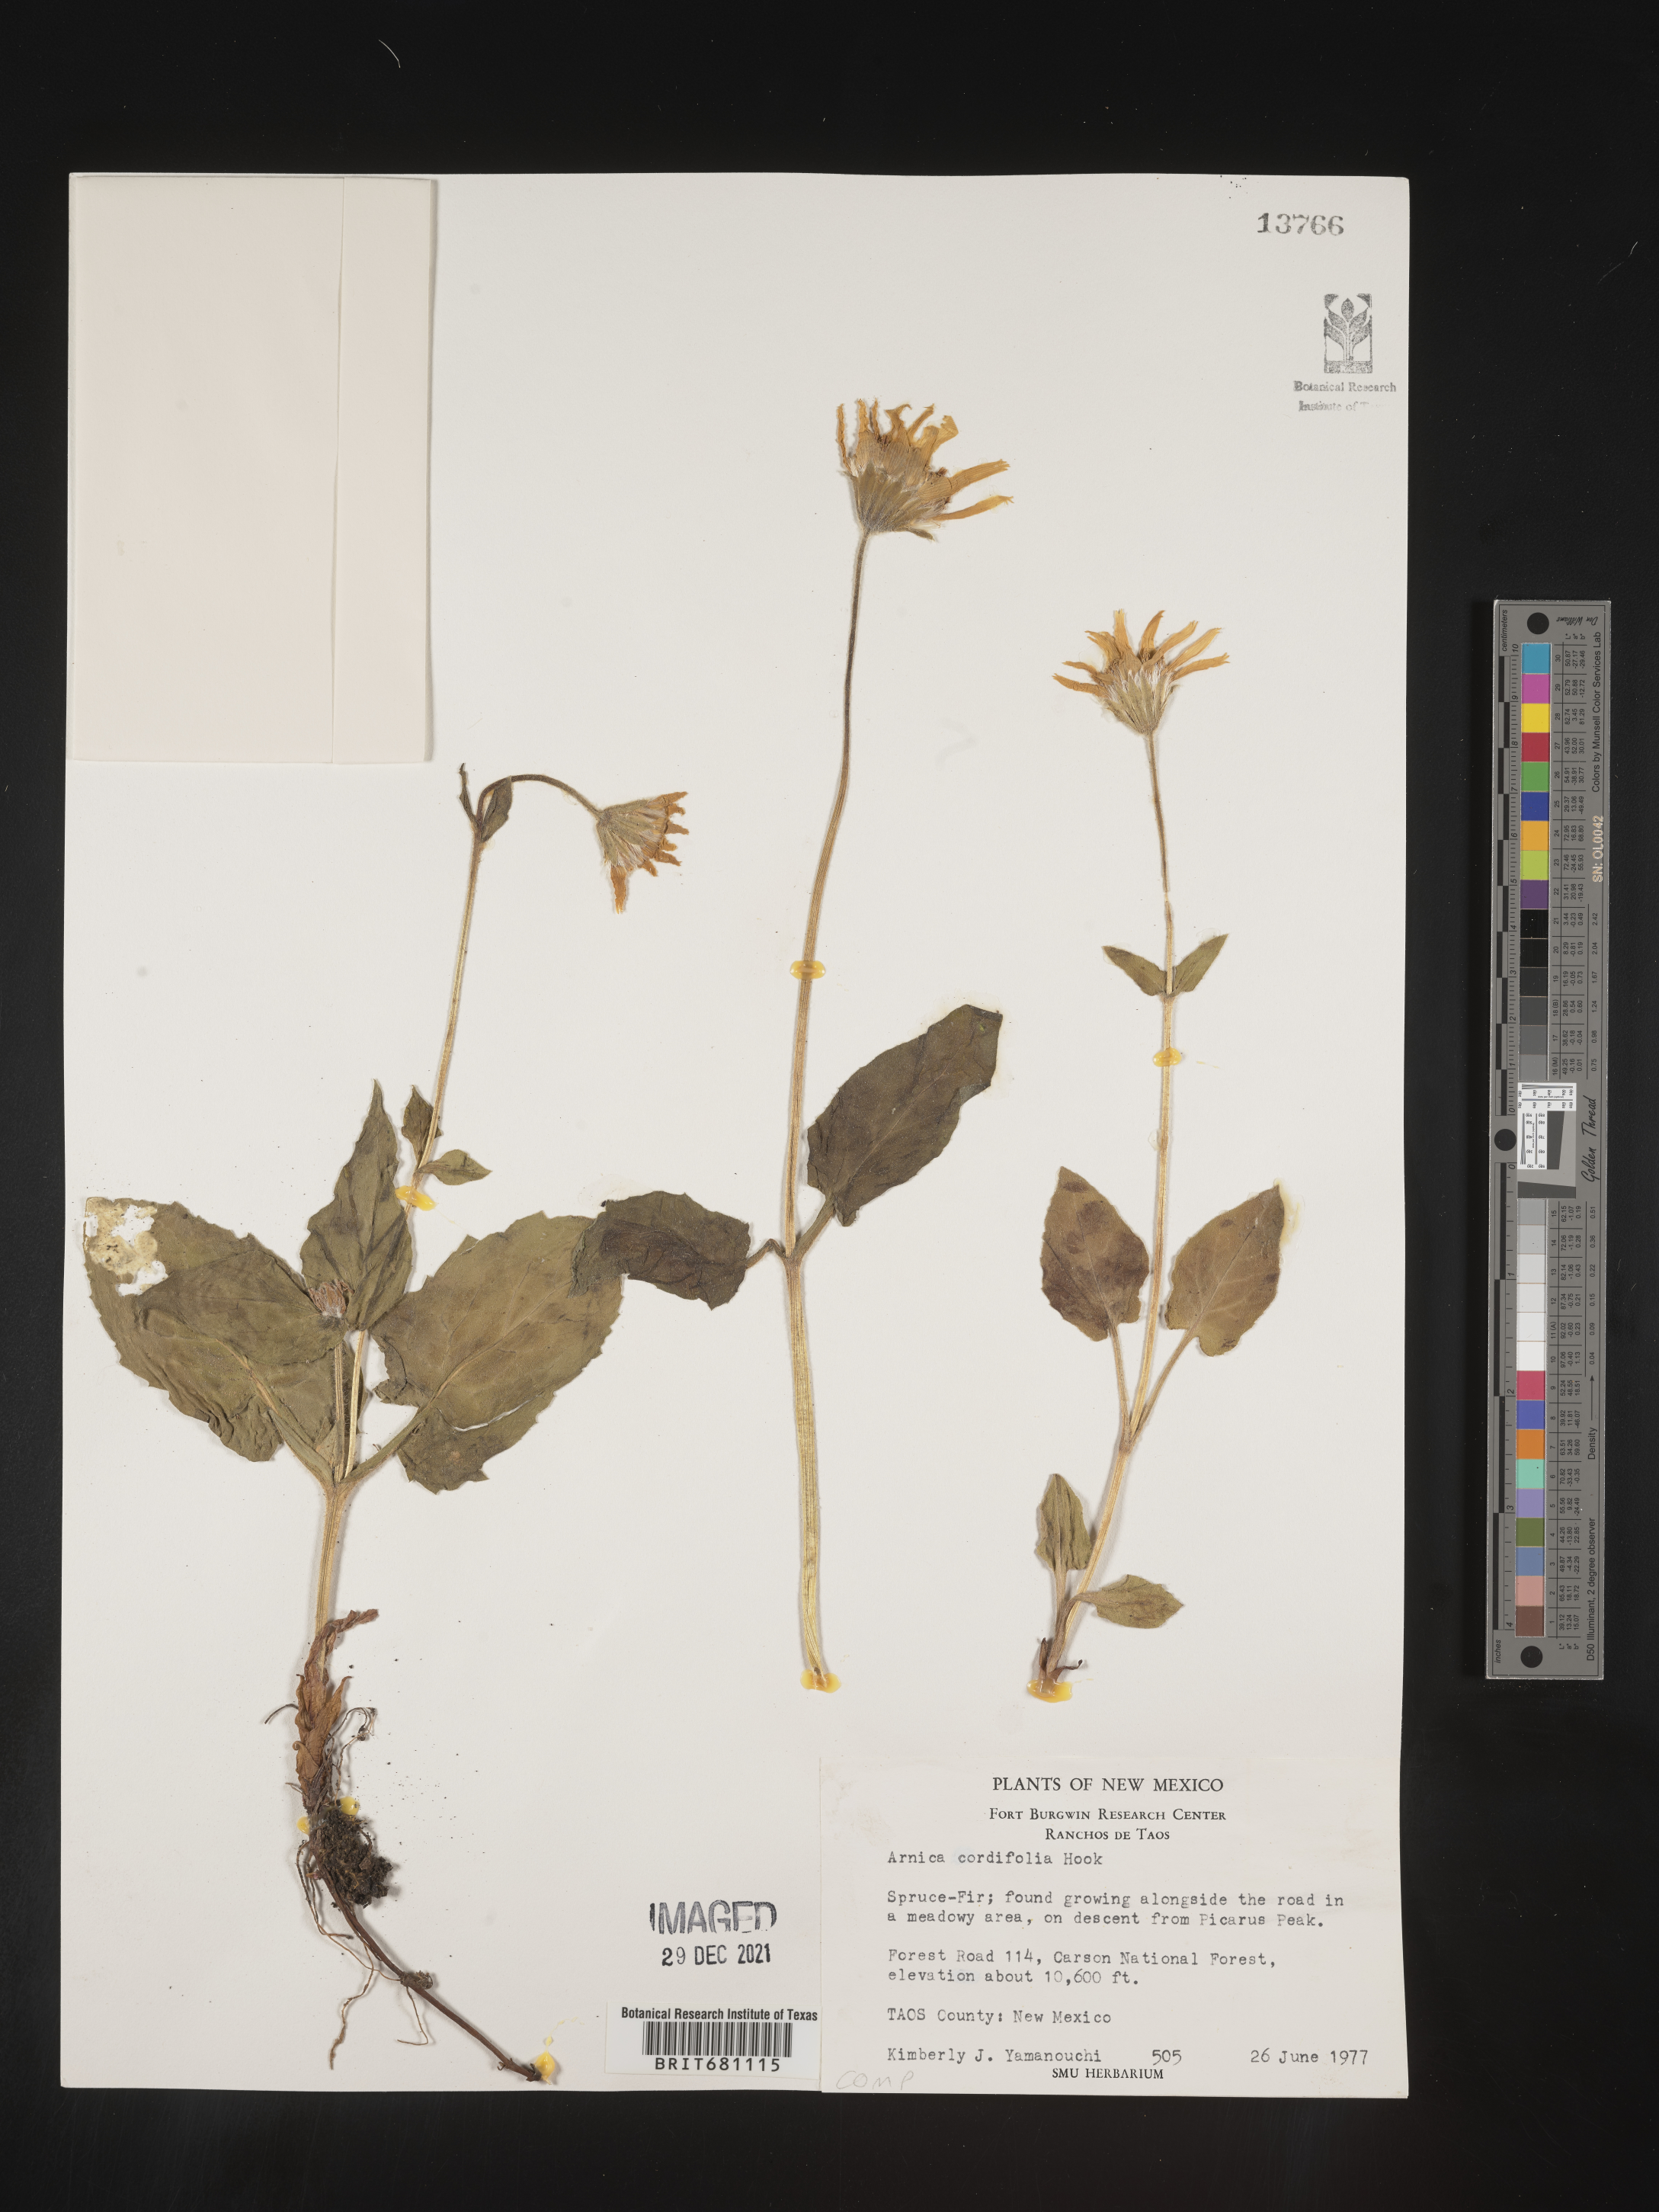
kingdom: Plantae
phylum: Tracheophyta
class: Magnoliopsida
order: Asterales
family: Asteraceae
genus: Arnica
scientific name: Arnica cordifolia
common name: Heart-leaf arnica
